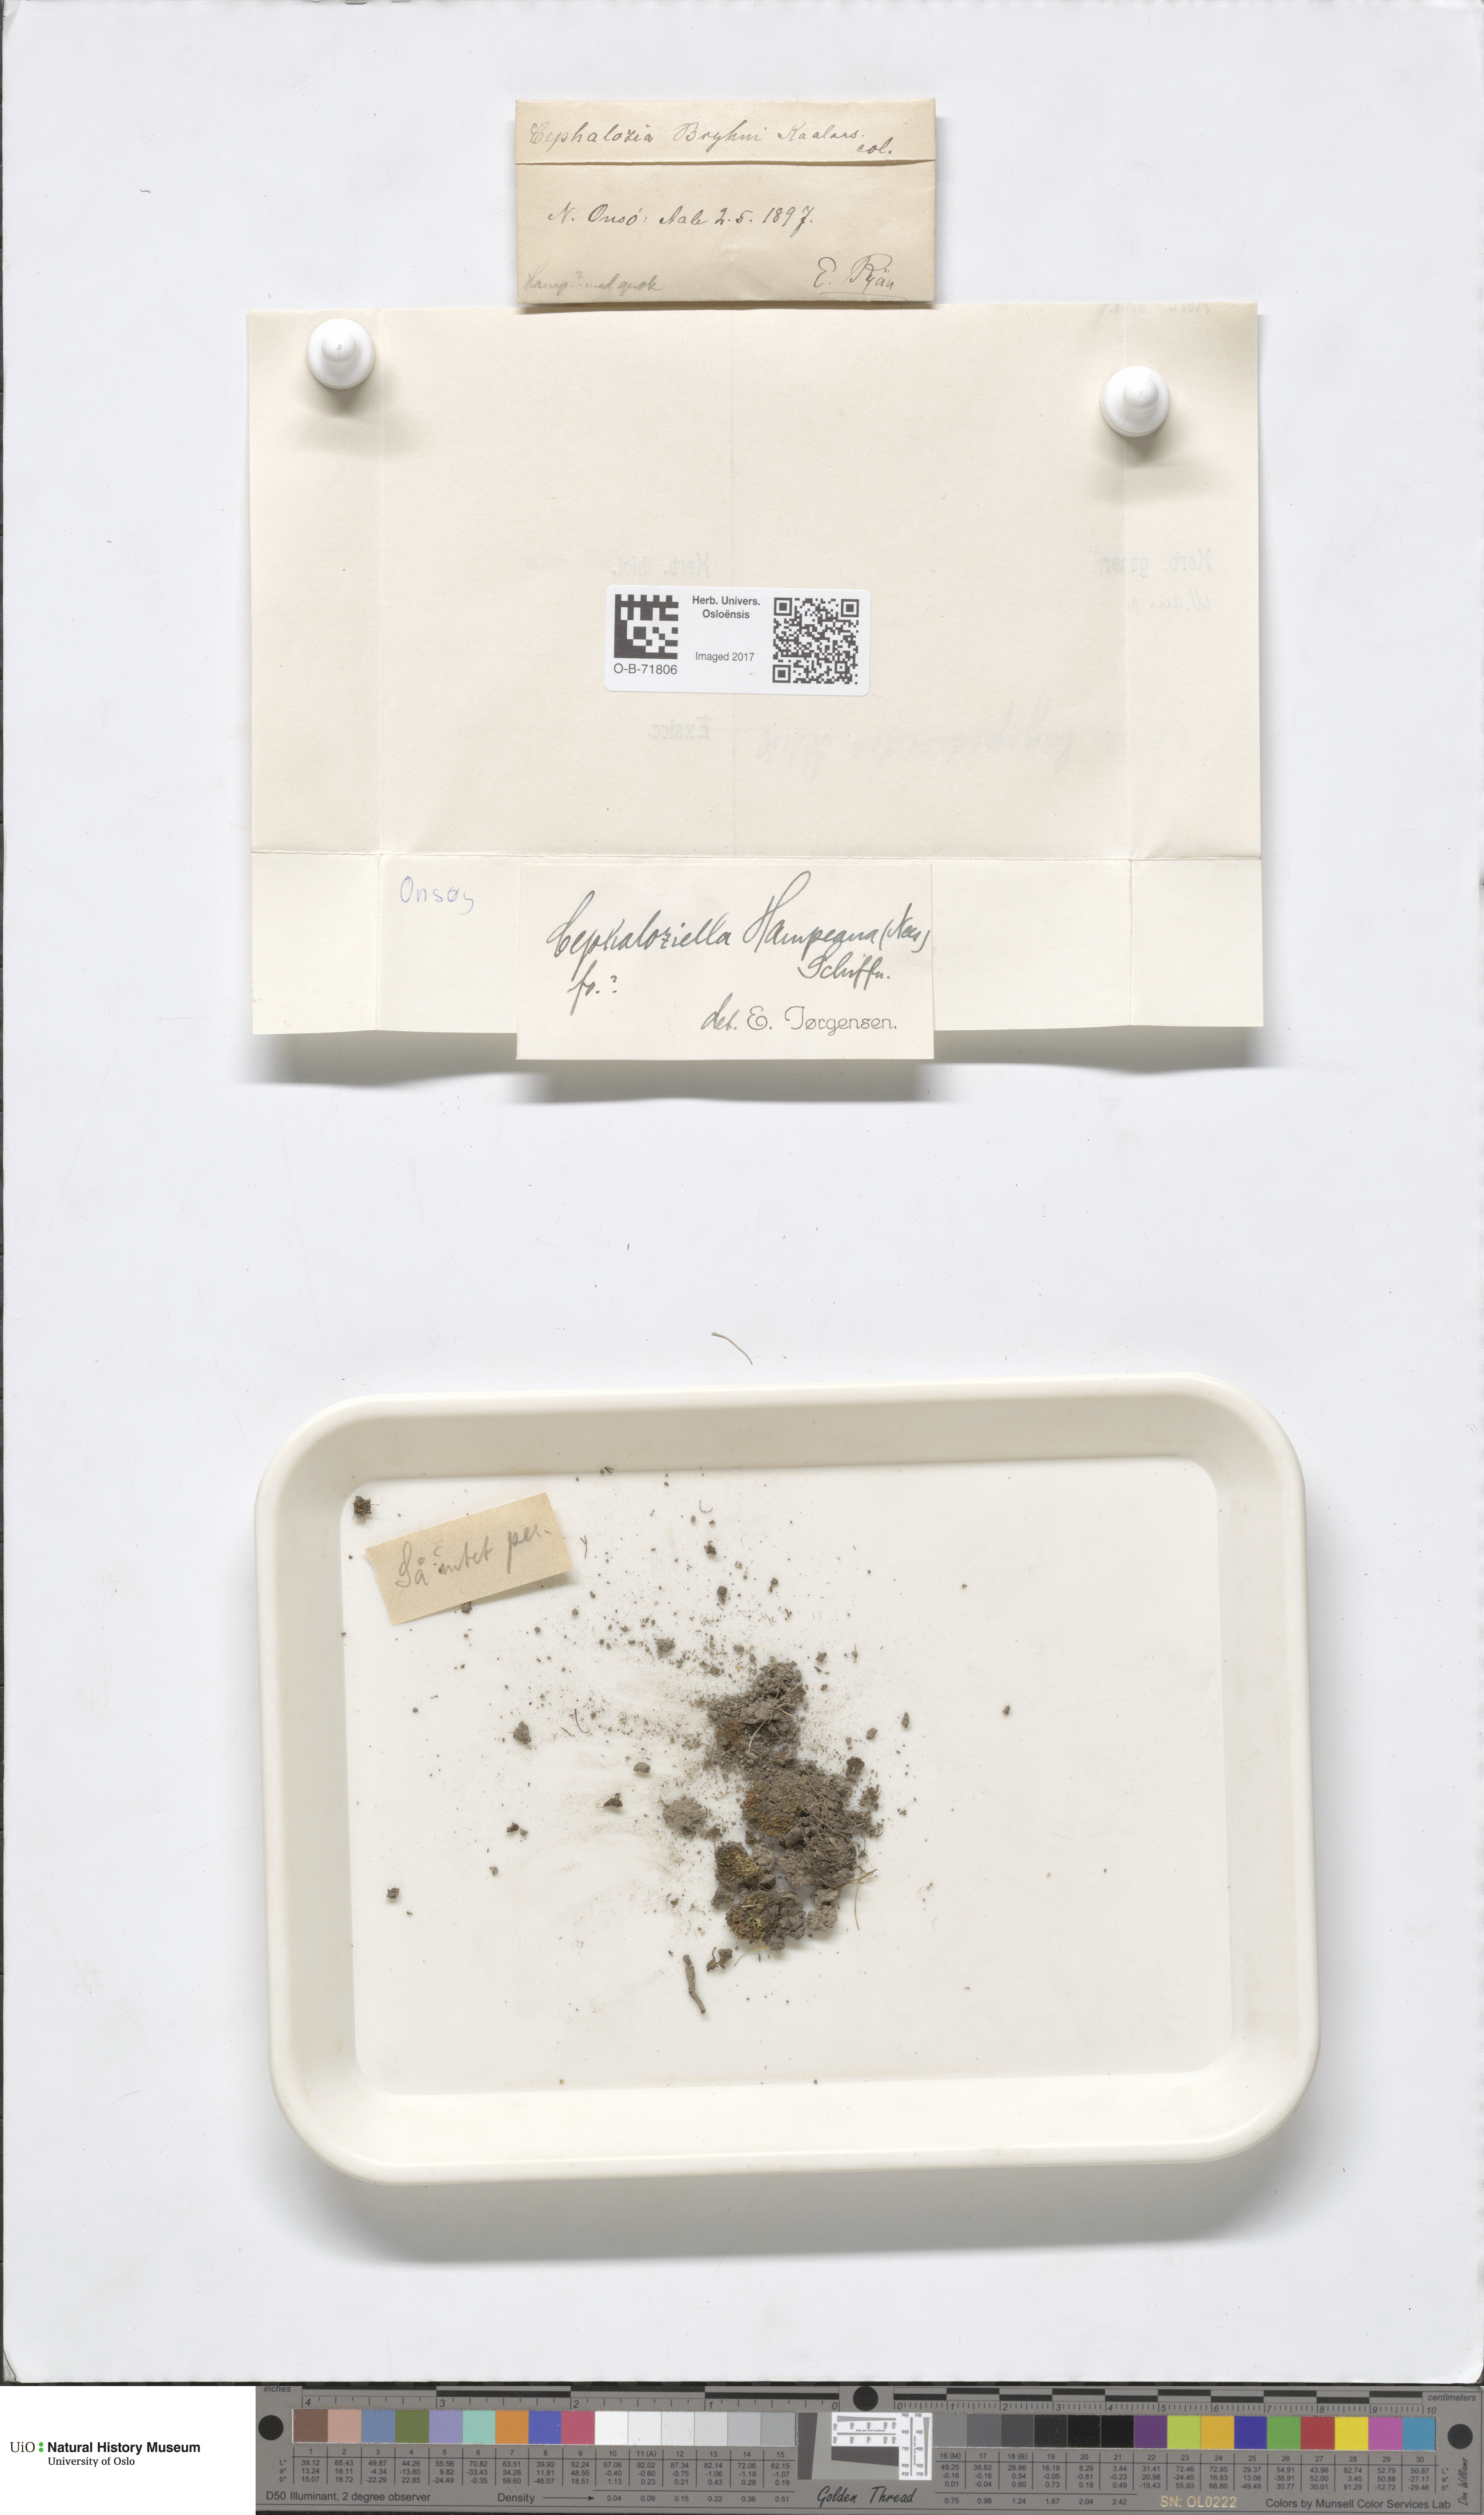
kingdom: Plantae
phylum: Marchantiophyta
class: Jungermanniopsida
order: Jungermanniales
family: Cephaloziellaceae
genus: Cephaloziella
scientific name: Cephaloziella hampeana
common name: Hampe s threadwort
